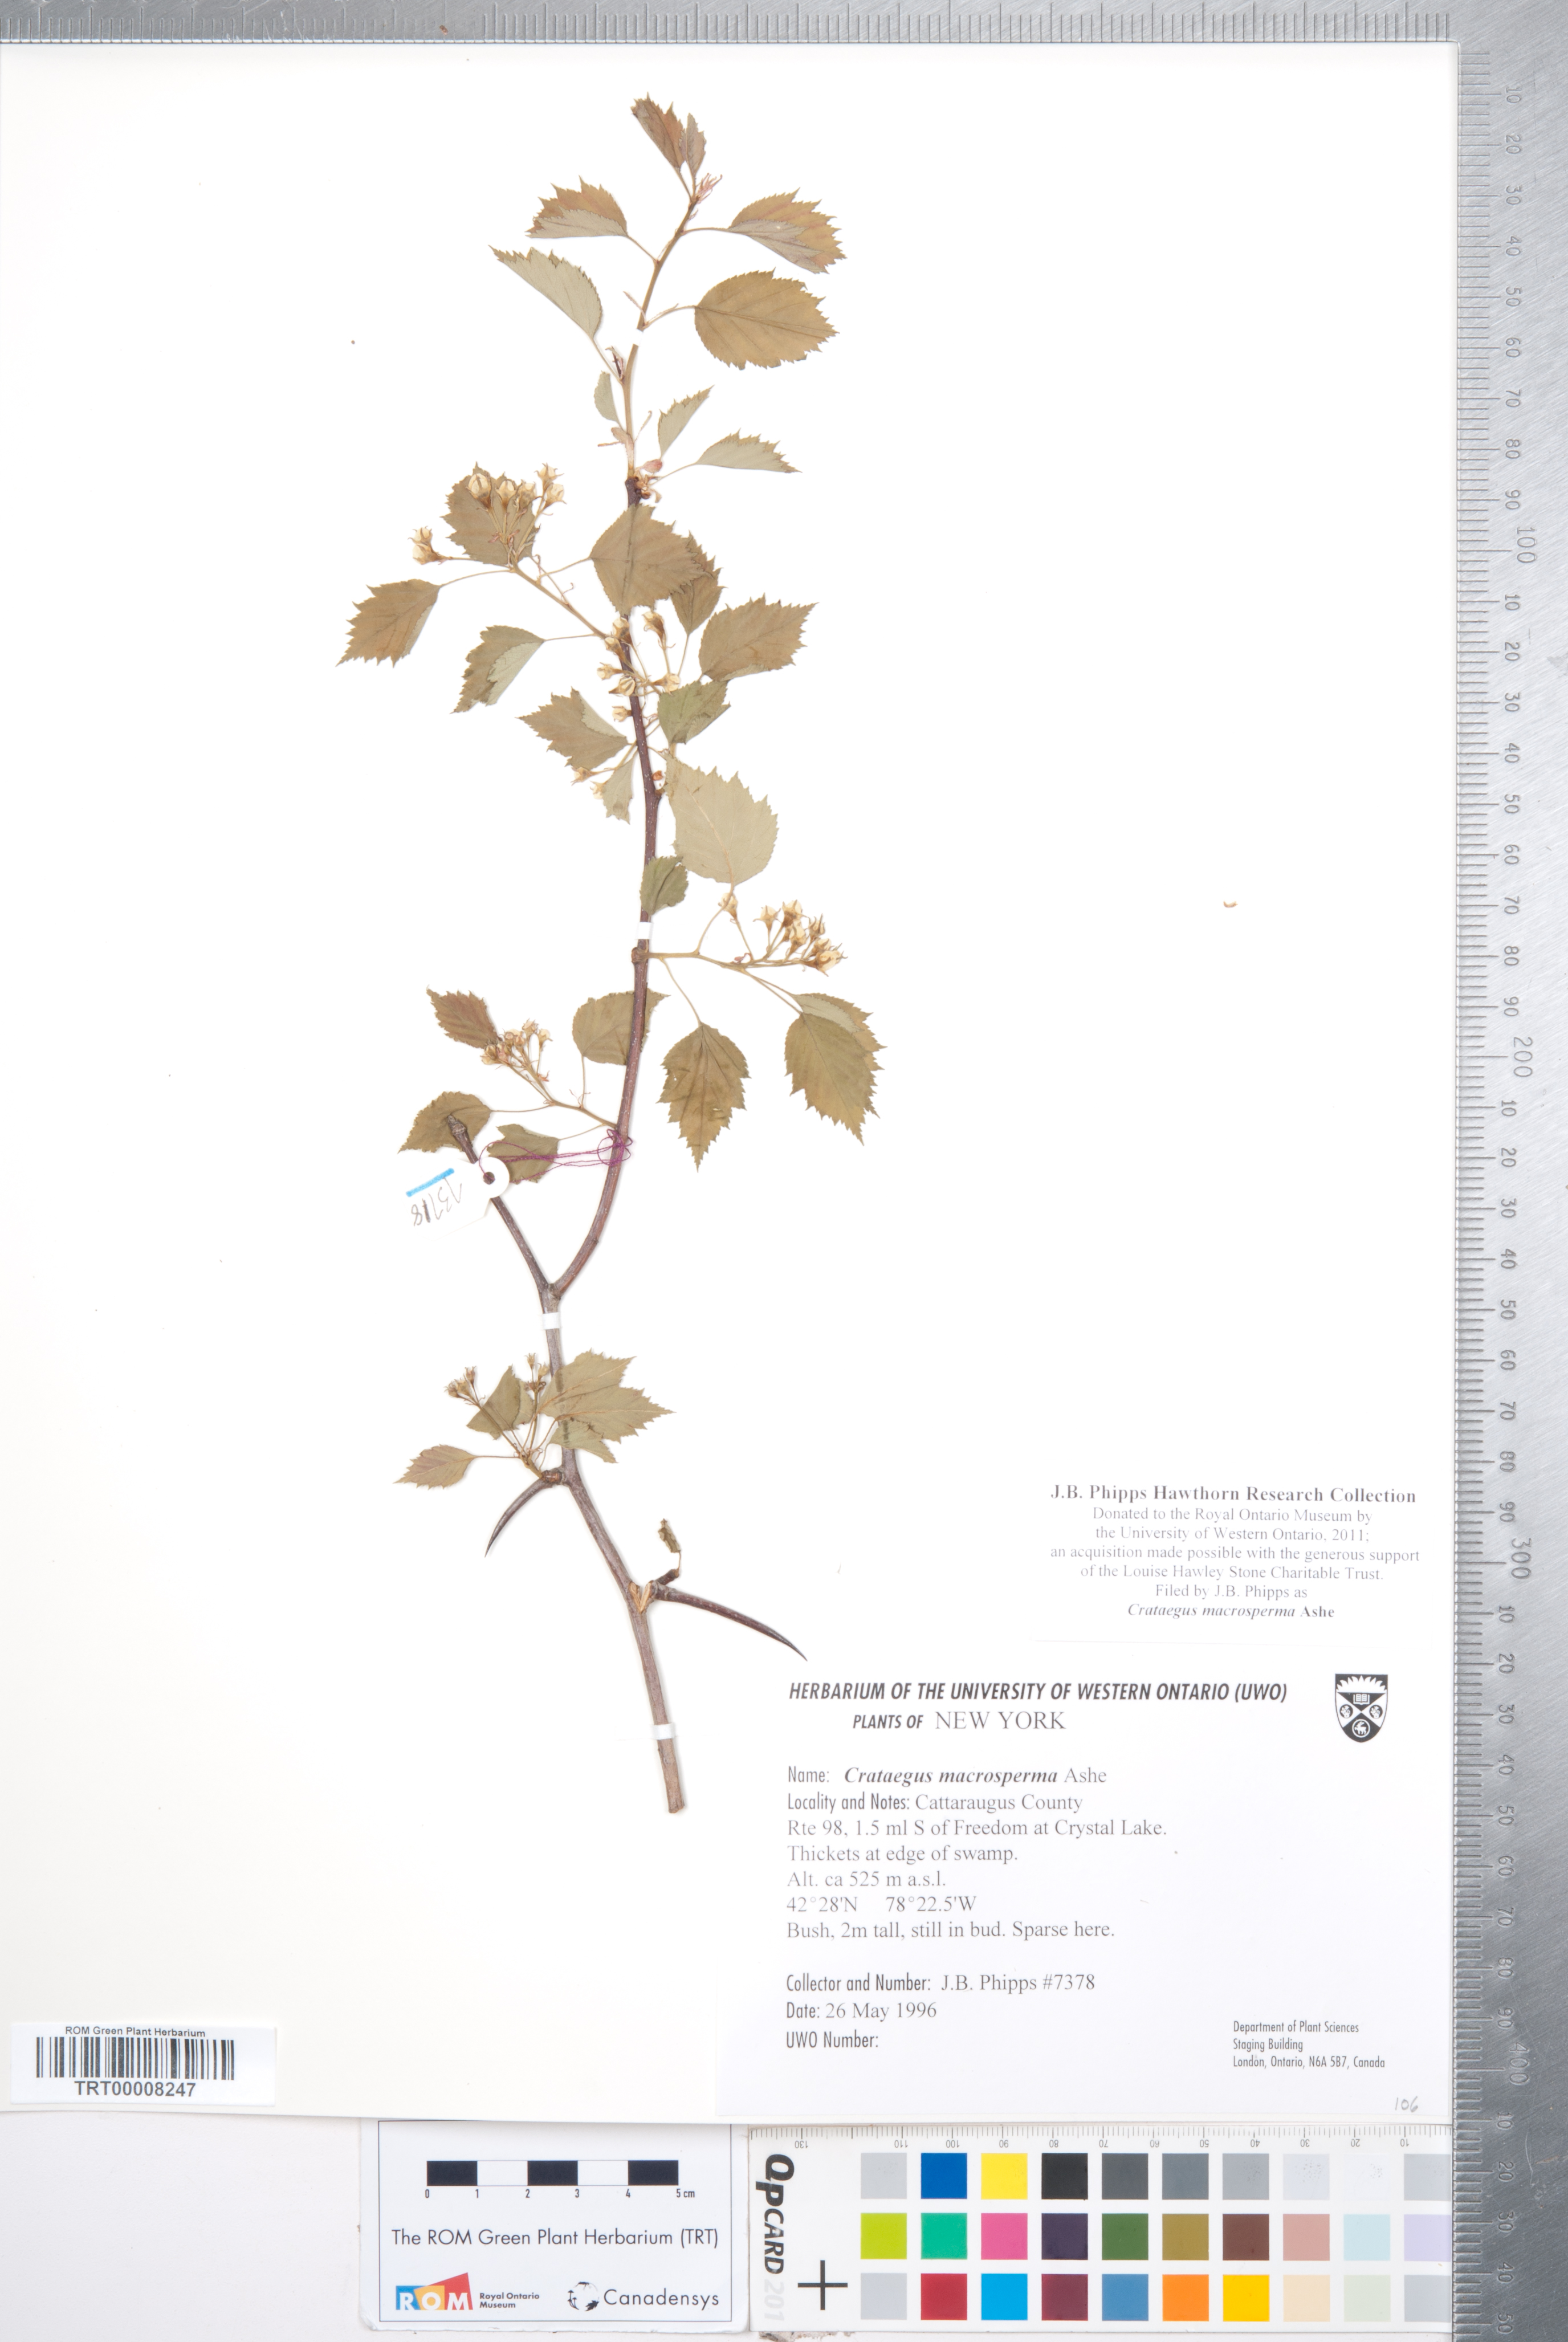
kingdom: Plantae
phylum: Tracheophyta
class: Magnoliopsida
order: Rosales
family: Rosaceae
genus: Crataegus
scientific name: Crataegus macrosperma
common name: Variable hawthorn
